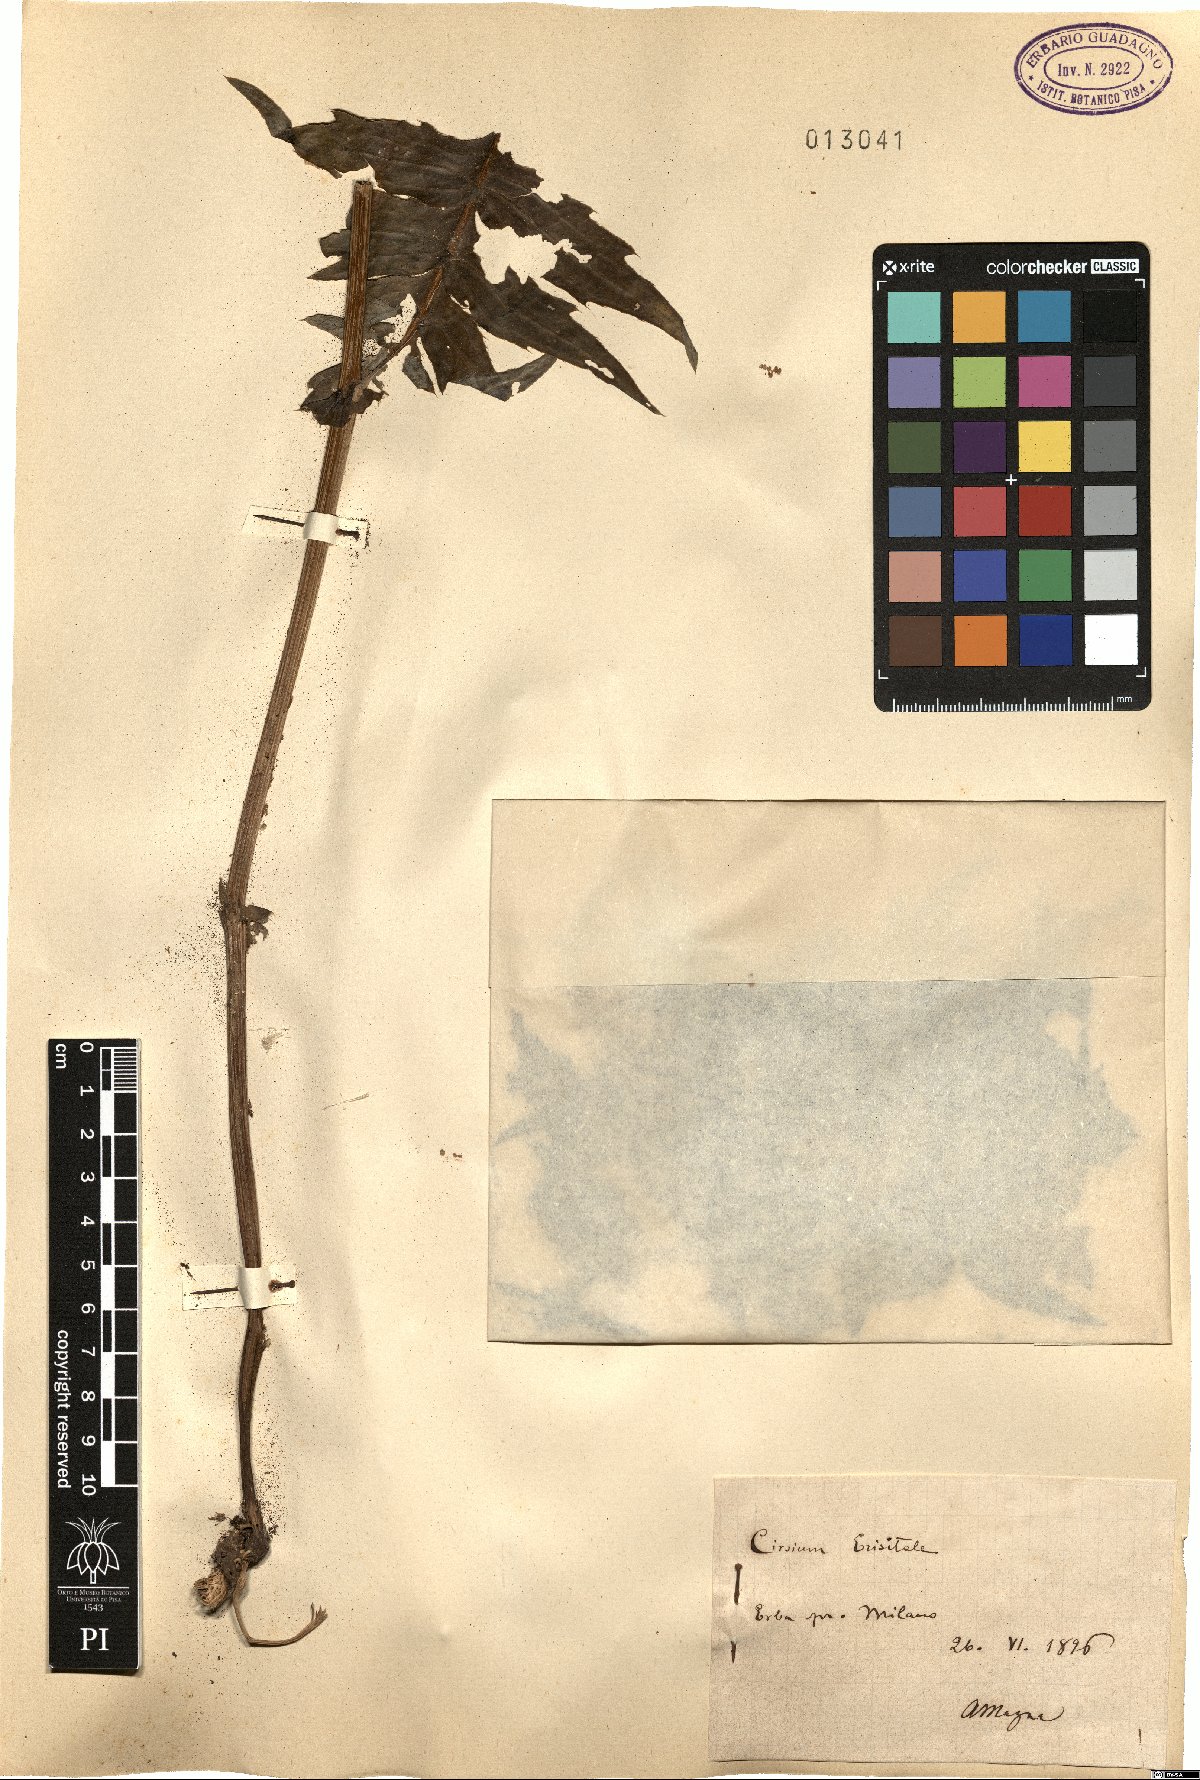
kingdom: Plantae
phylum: Tracheophyta
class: Magnoliopsida
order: Asterales
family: Asteraceae
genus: Cirsium
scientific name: Cirsium erisithales
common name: Yellow thistle
